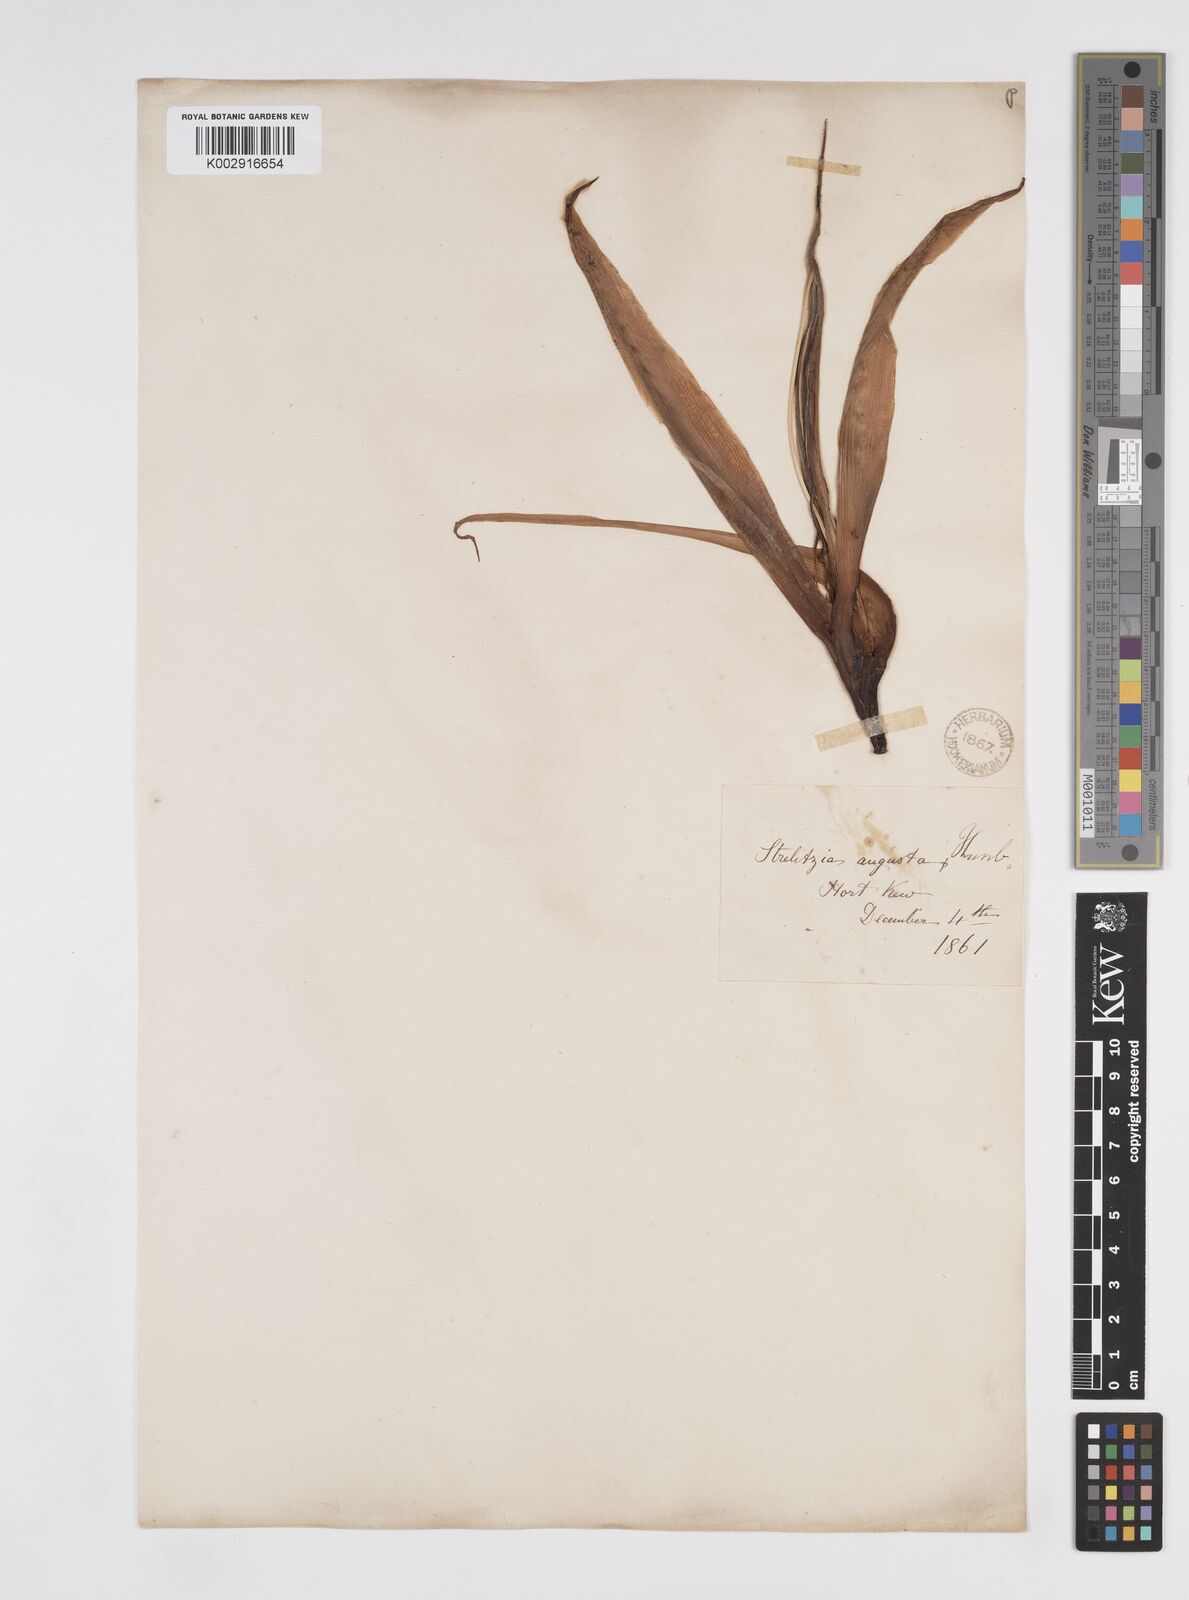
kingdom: Plantae
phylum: Tracheophyta
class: Liliopsida
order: Zingiberales
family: Strelitziaceae
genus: Strelitzia
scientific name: Strelitzia alba
